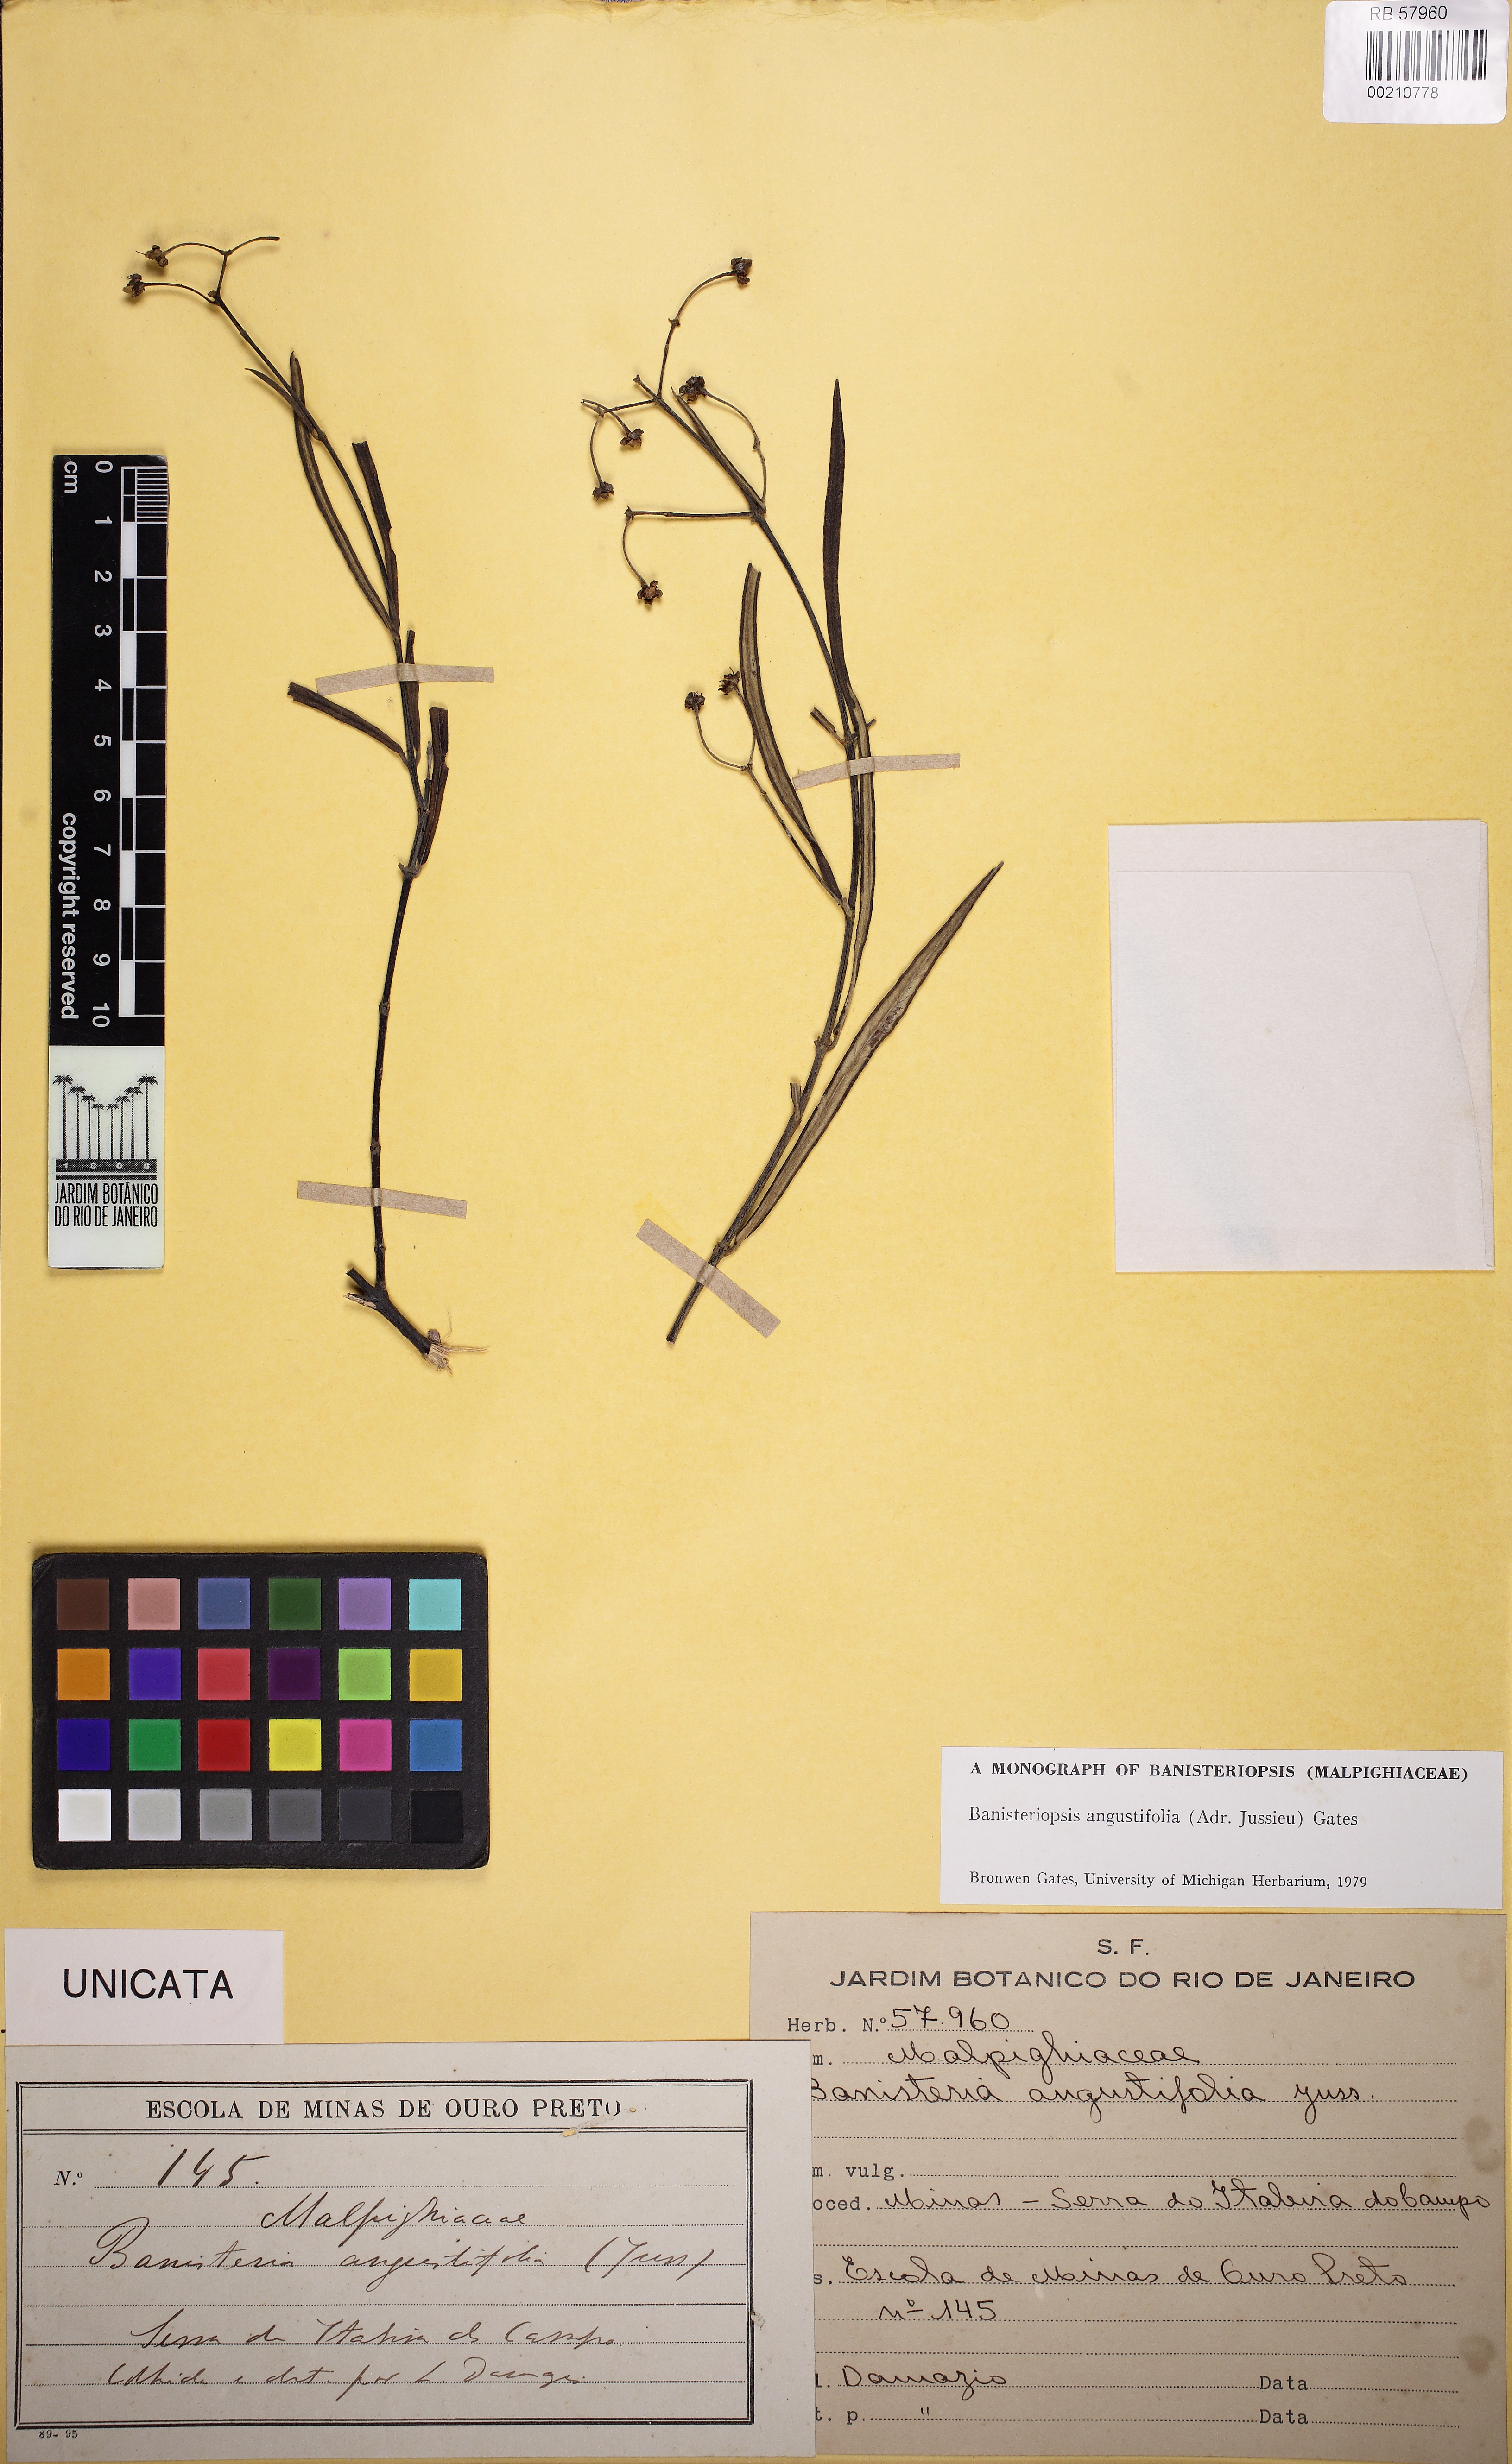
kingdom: Plantae
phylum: Tracheophyta
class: Magnoliopsida
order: Malpighiales
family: Malpighiaceae
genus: Banisteriopsis
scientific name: Banisteriopsis angustifolia
